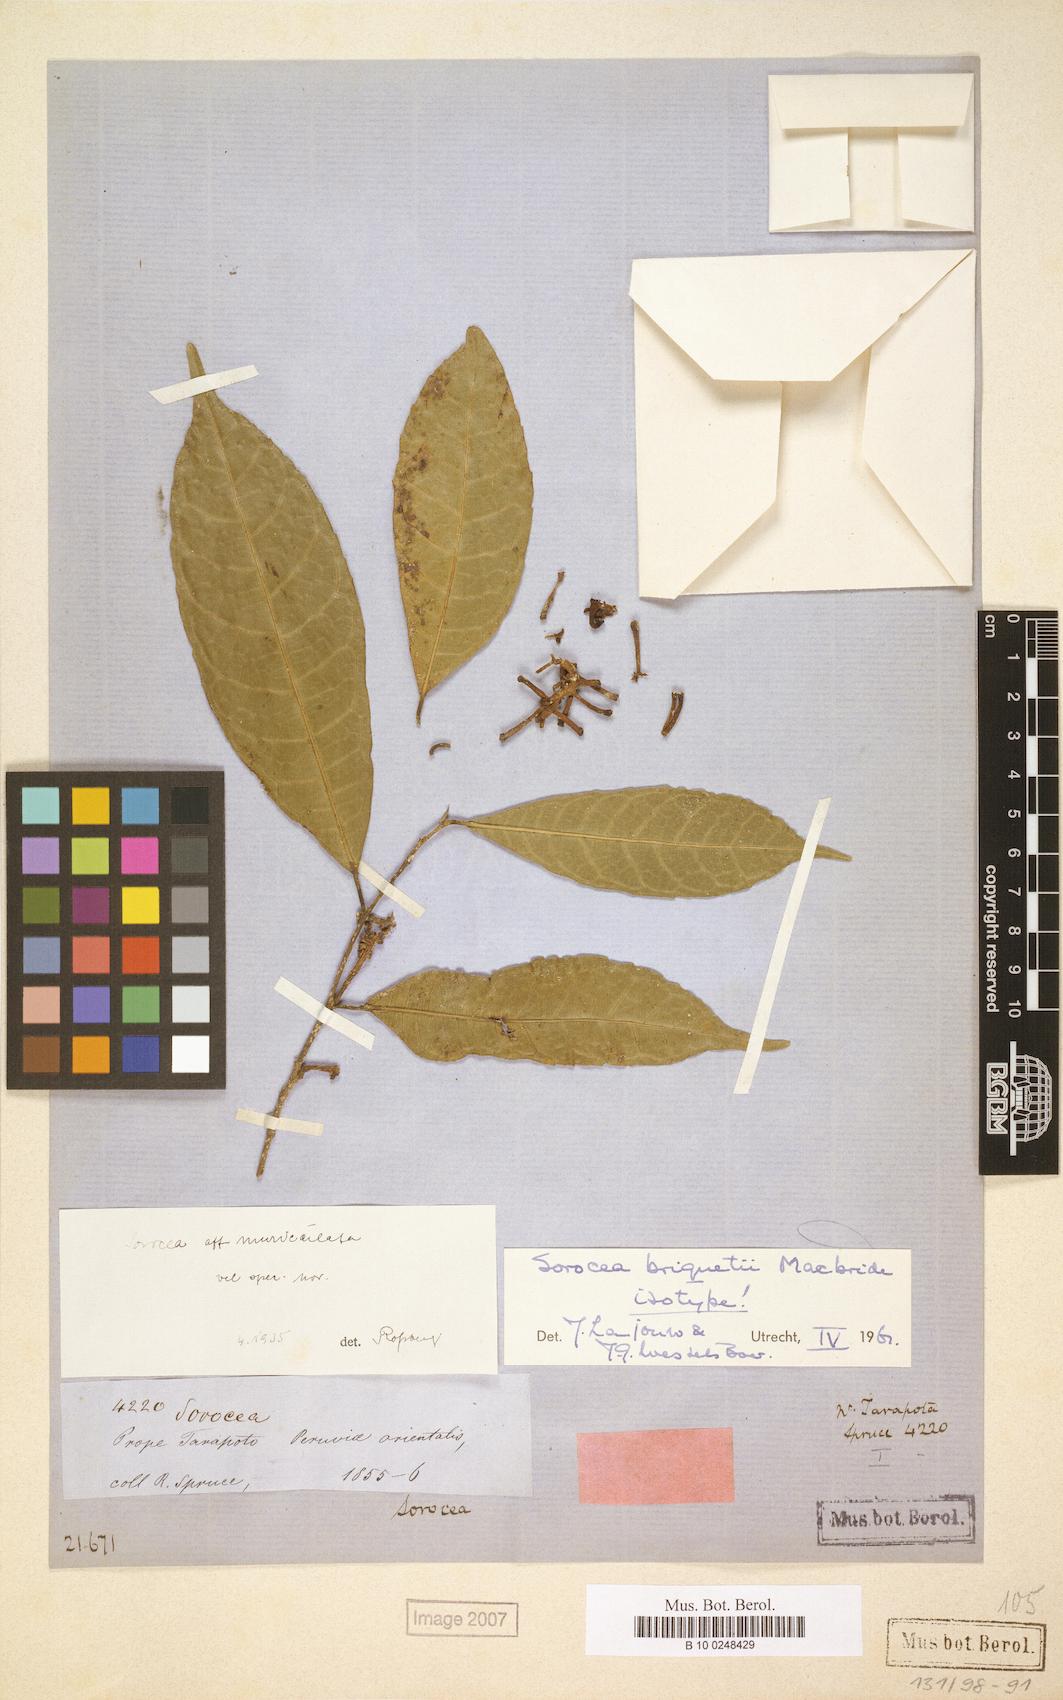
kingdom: Plantae
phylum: Tracheophyta
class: Magnoliopsida
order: Rosales
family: Moraceae
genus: Sorocea
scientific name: Sorocea briquetii
